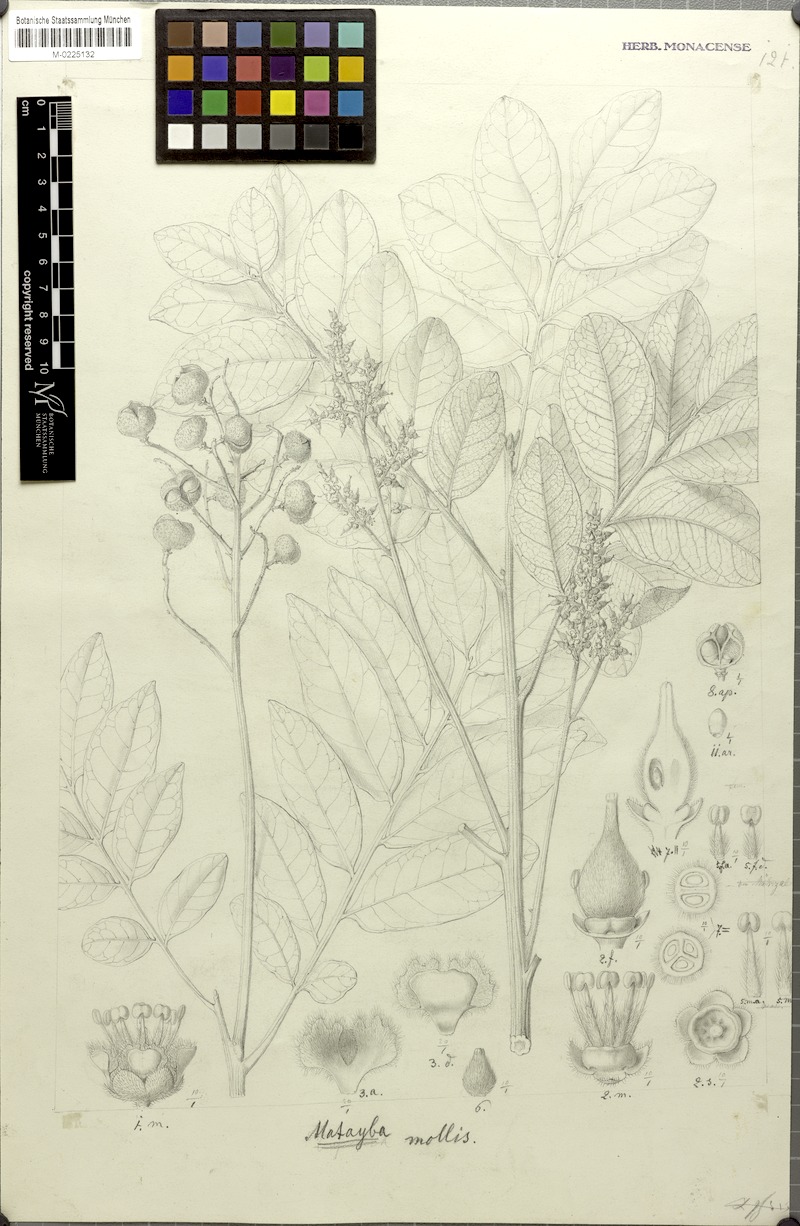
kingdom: Plantae
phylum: Tracheophyta
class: Magnoliopsida
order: Sapindales
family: Sapindaceae
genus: Matayba
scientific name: Matayba mollis
